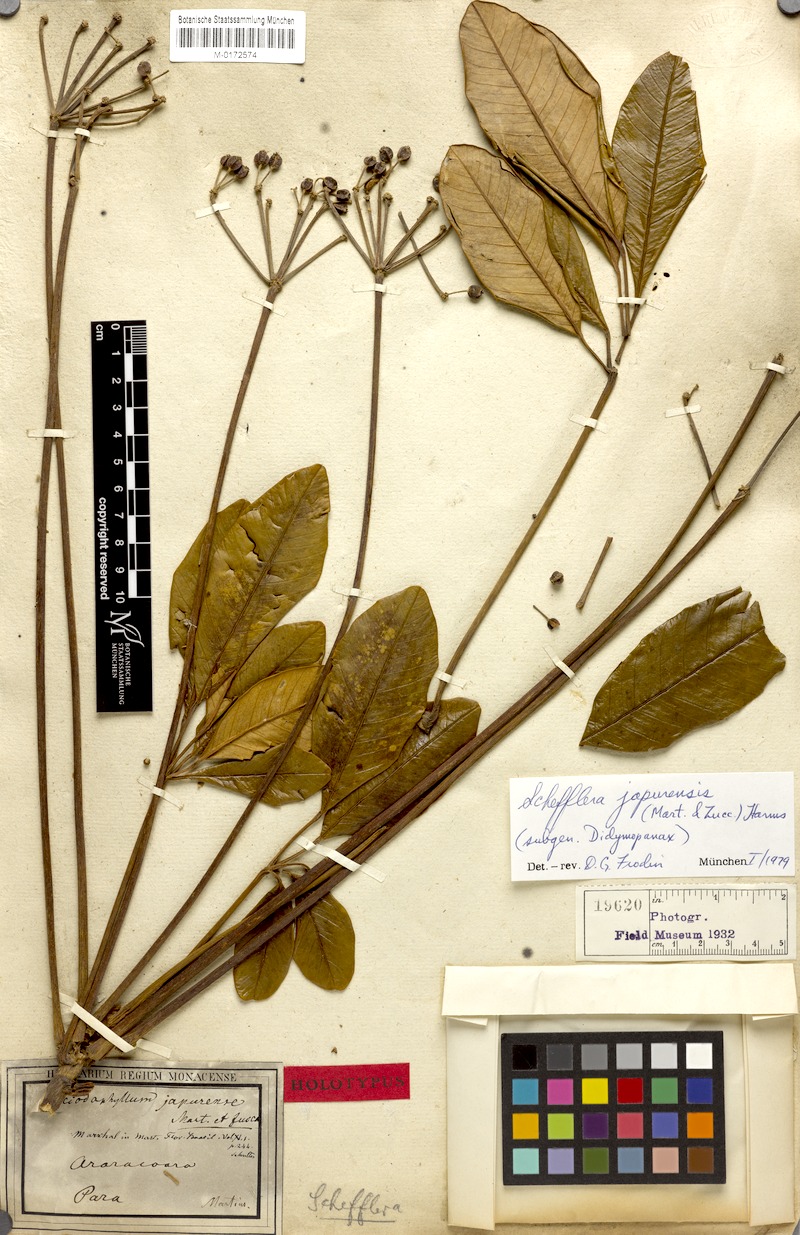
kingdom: Plantae
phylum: Tracheophyta
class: Magnoliopsida
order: Apiales
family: Araliaceae
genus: Crepinella
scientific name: Crepinella japurensis
